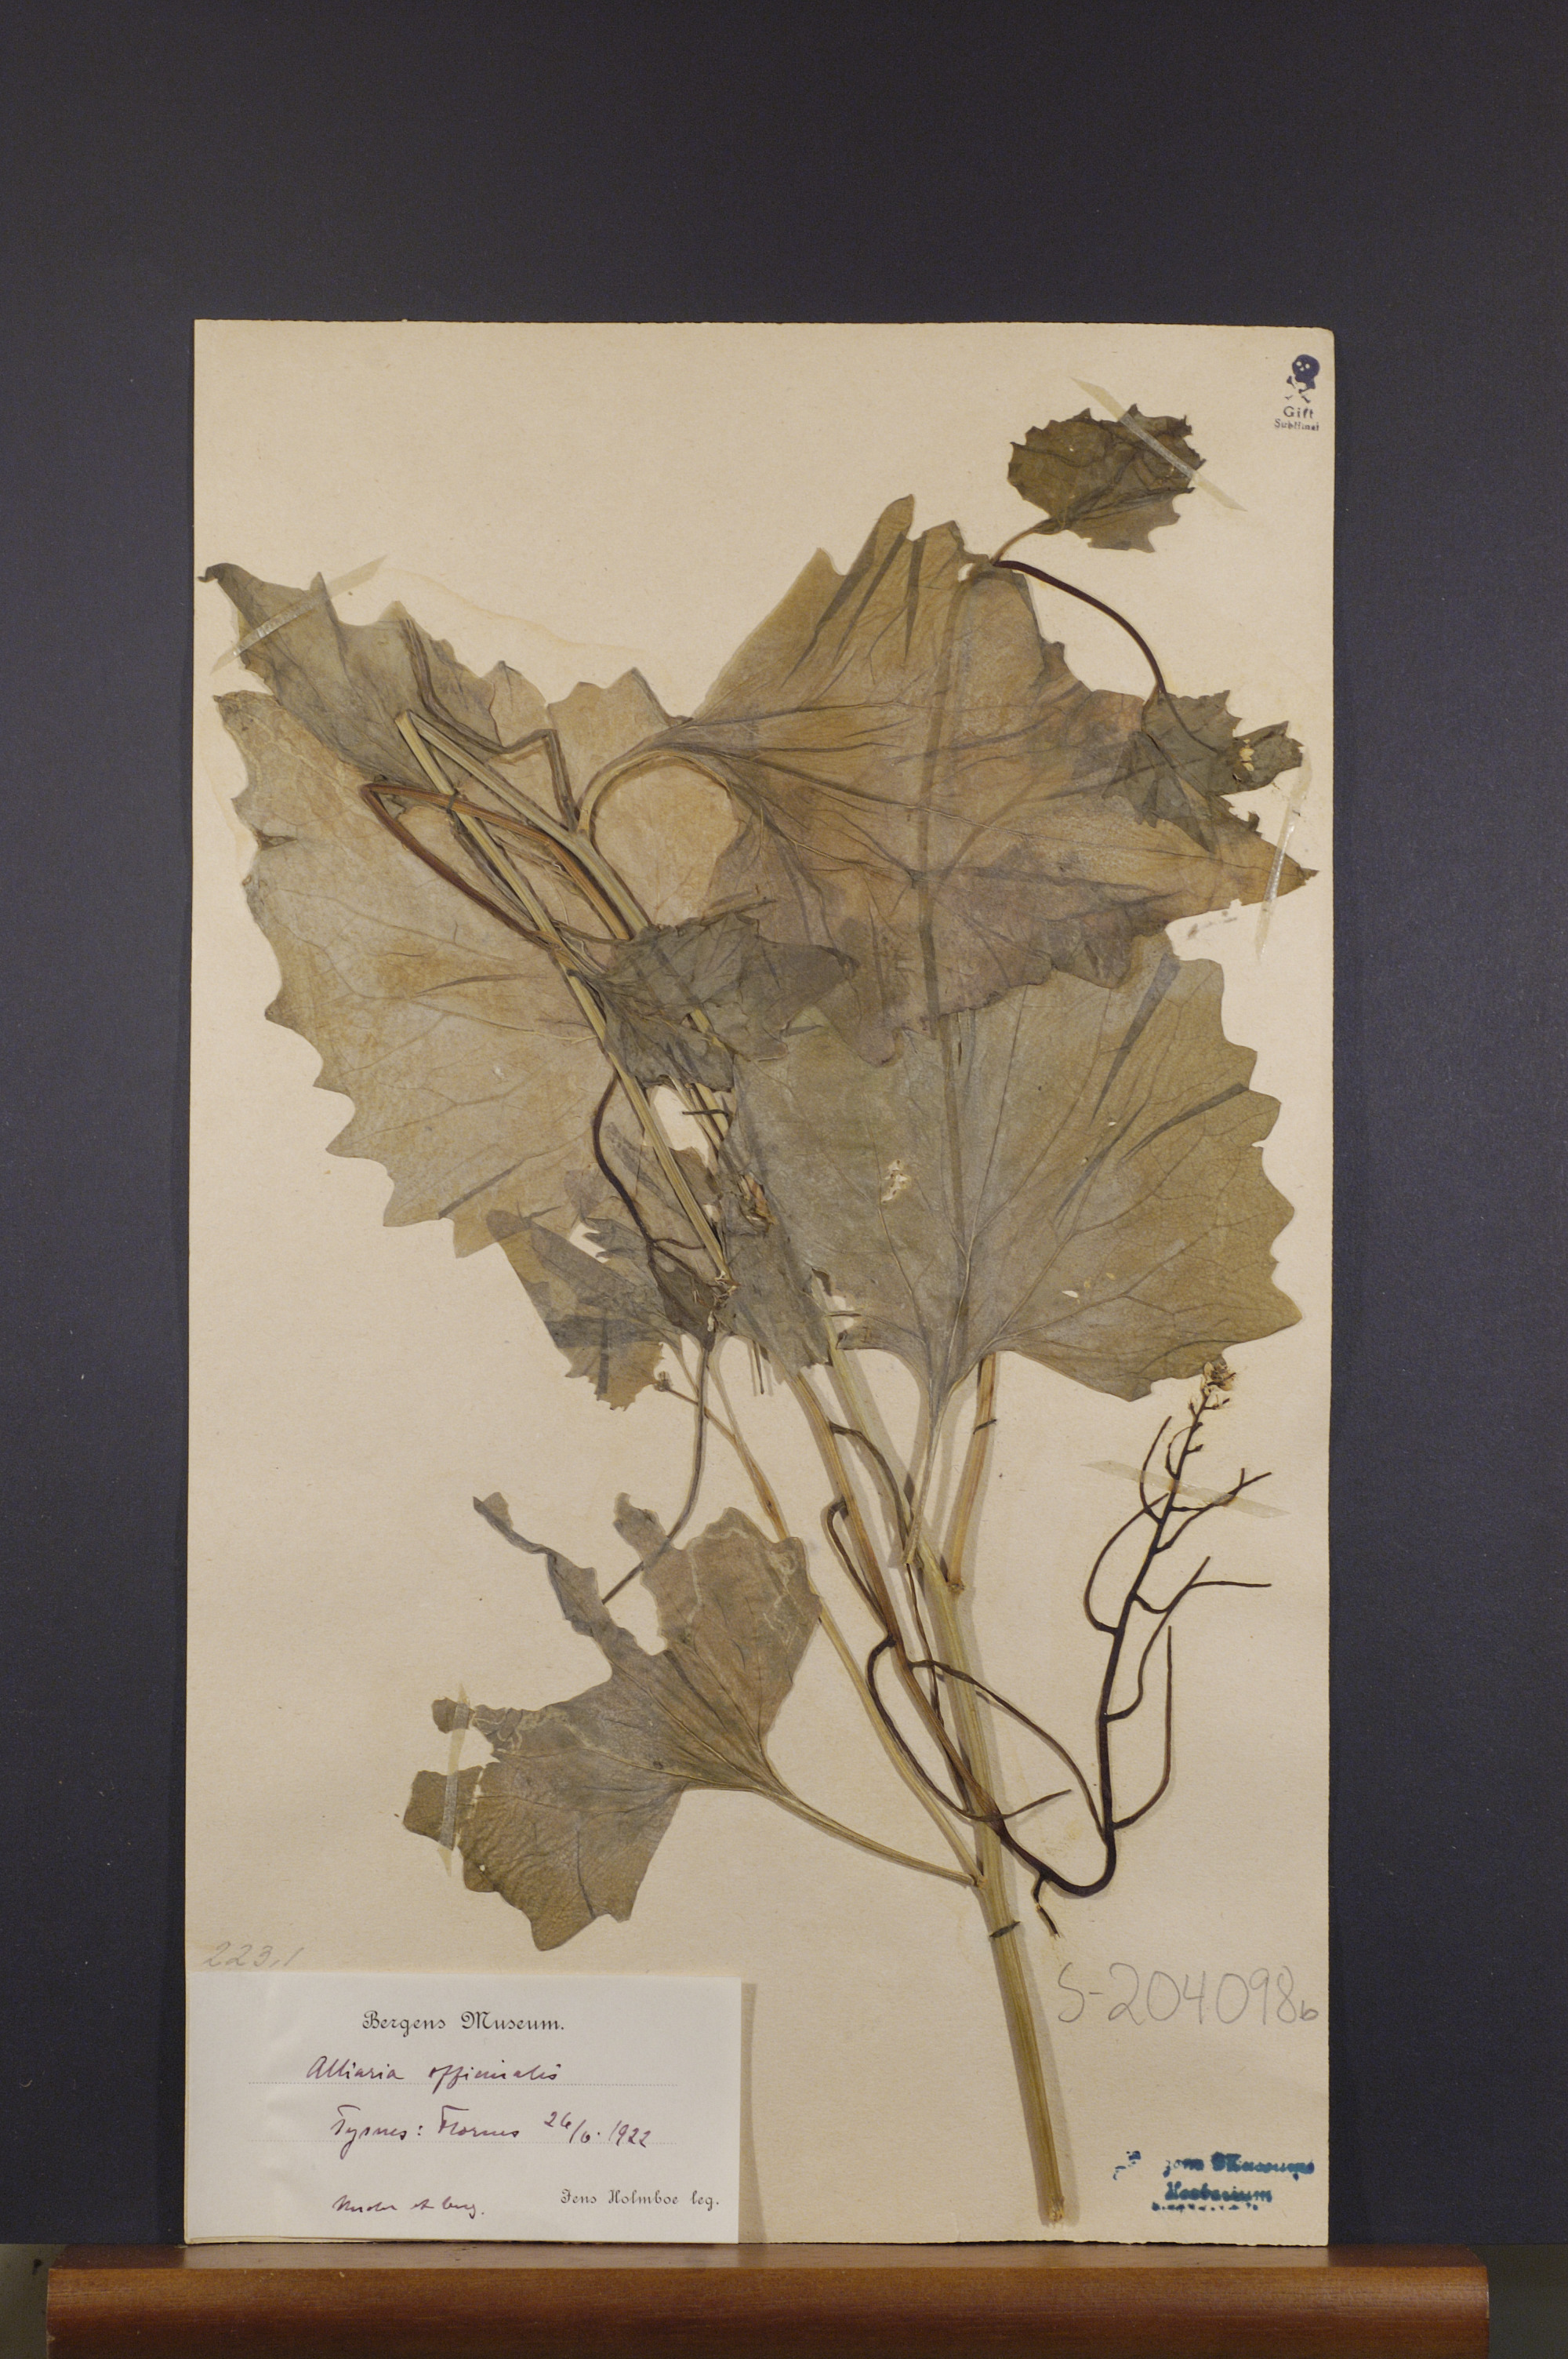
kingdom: Plantae
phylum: Tracheophyta
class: Magnoliopsida
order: Brassicales
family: Brassicaceae
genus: Alliaria
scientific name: Alliaria petiolata
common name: Garlic mustard
